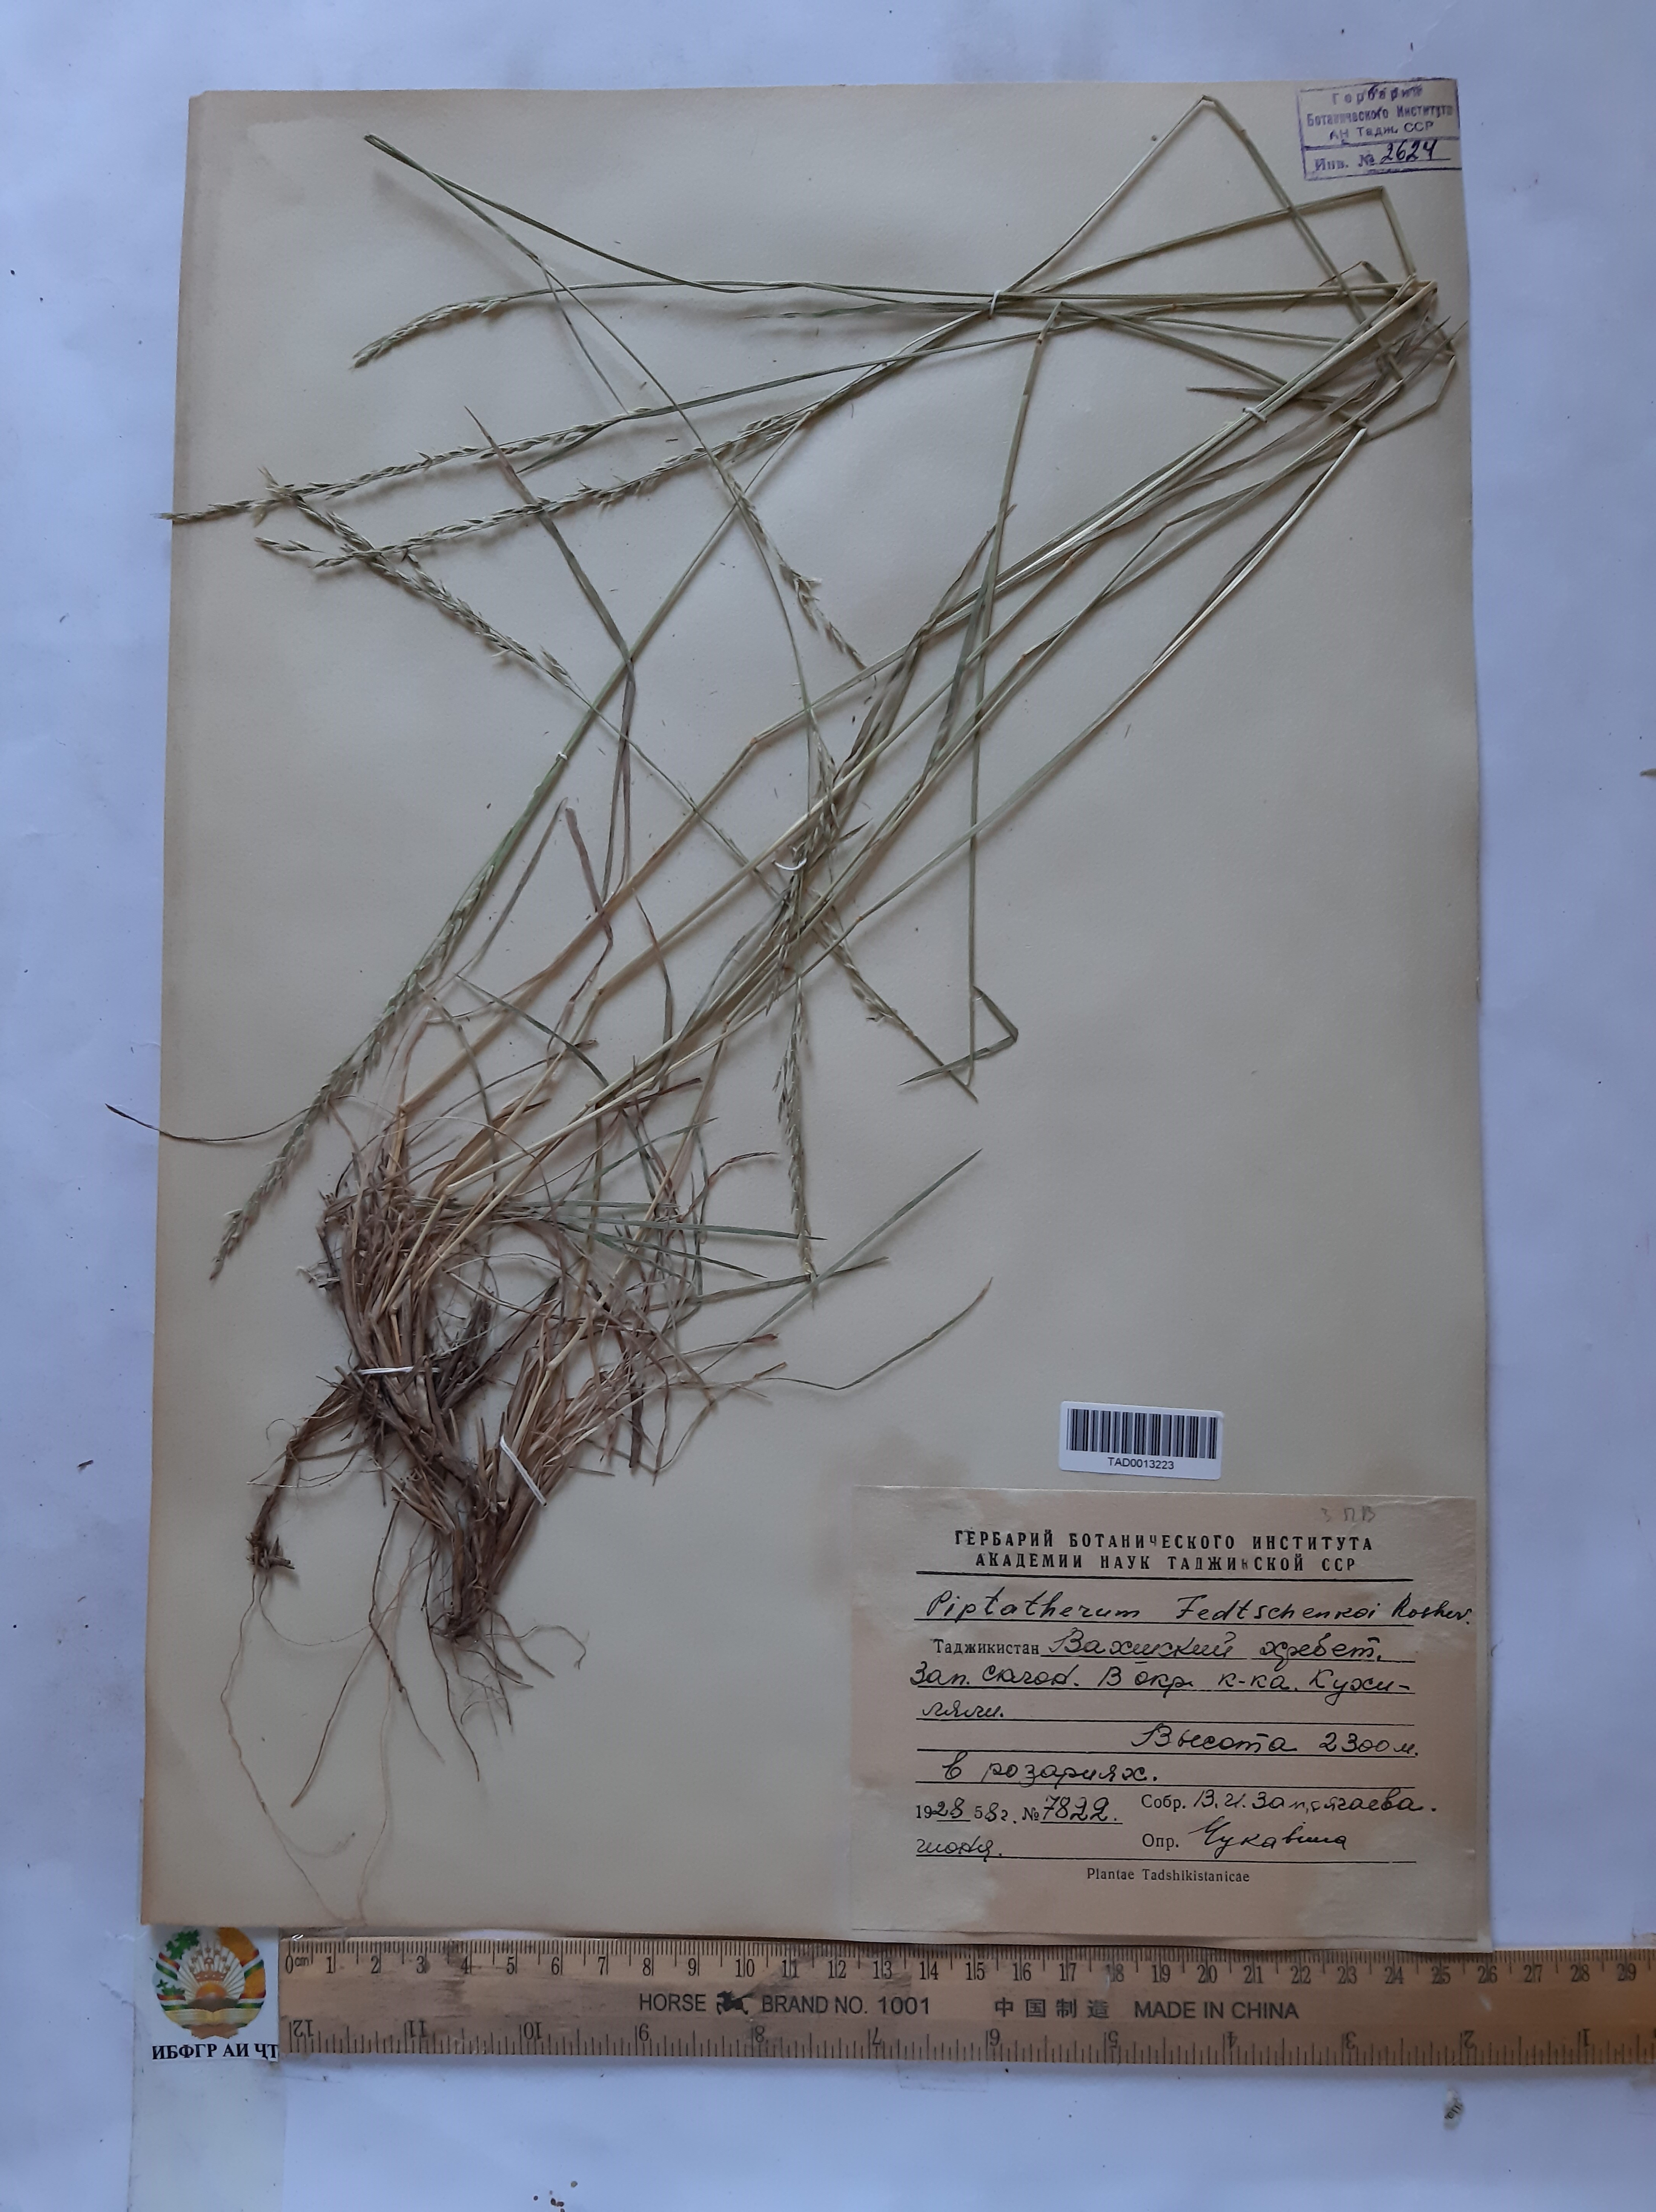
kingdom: Plantae
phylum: Tracheophyta
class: Liliopsida
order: Poales
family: Poaceae
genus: Piptatherum
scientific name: Piptatherum sogdianum
